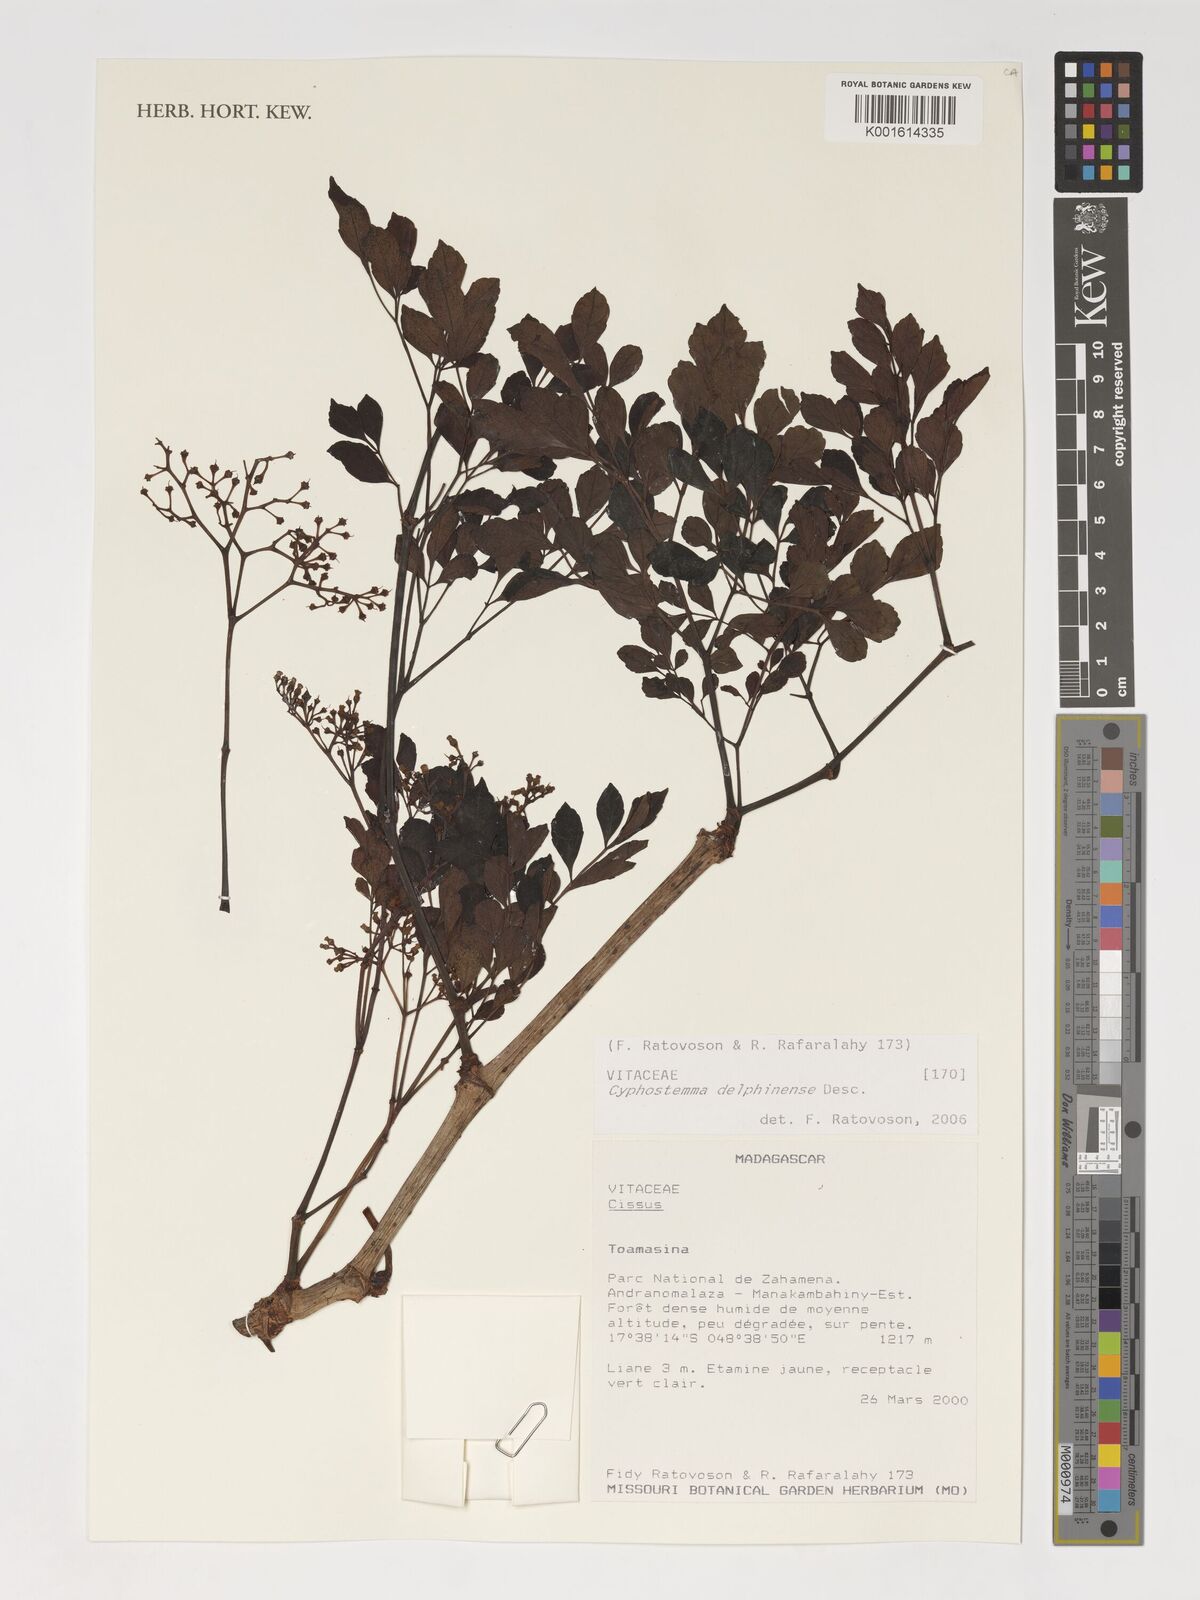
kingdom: Plantae
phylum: Tracheophyta
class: Magnoliopsida
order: Vitales
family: Vitaceae
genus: Cyphostemma
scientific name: Cyphostemma delphinense
